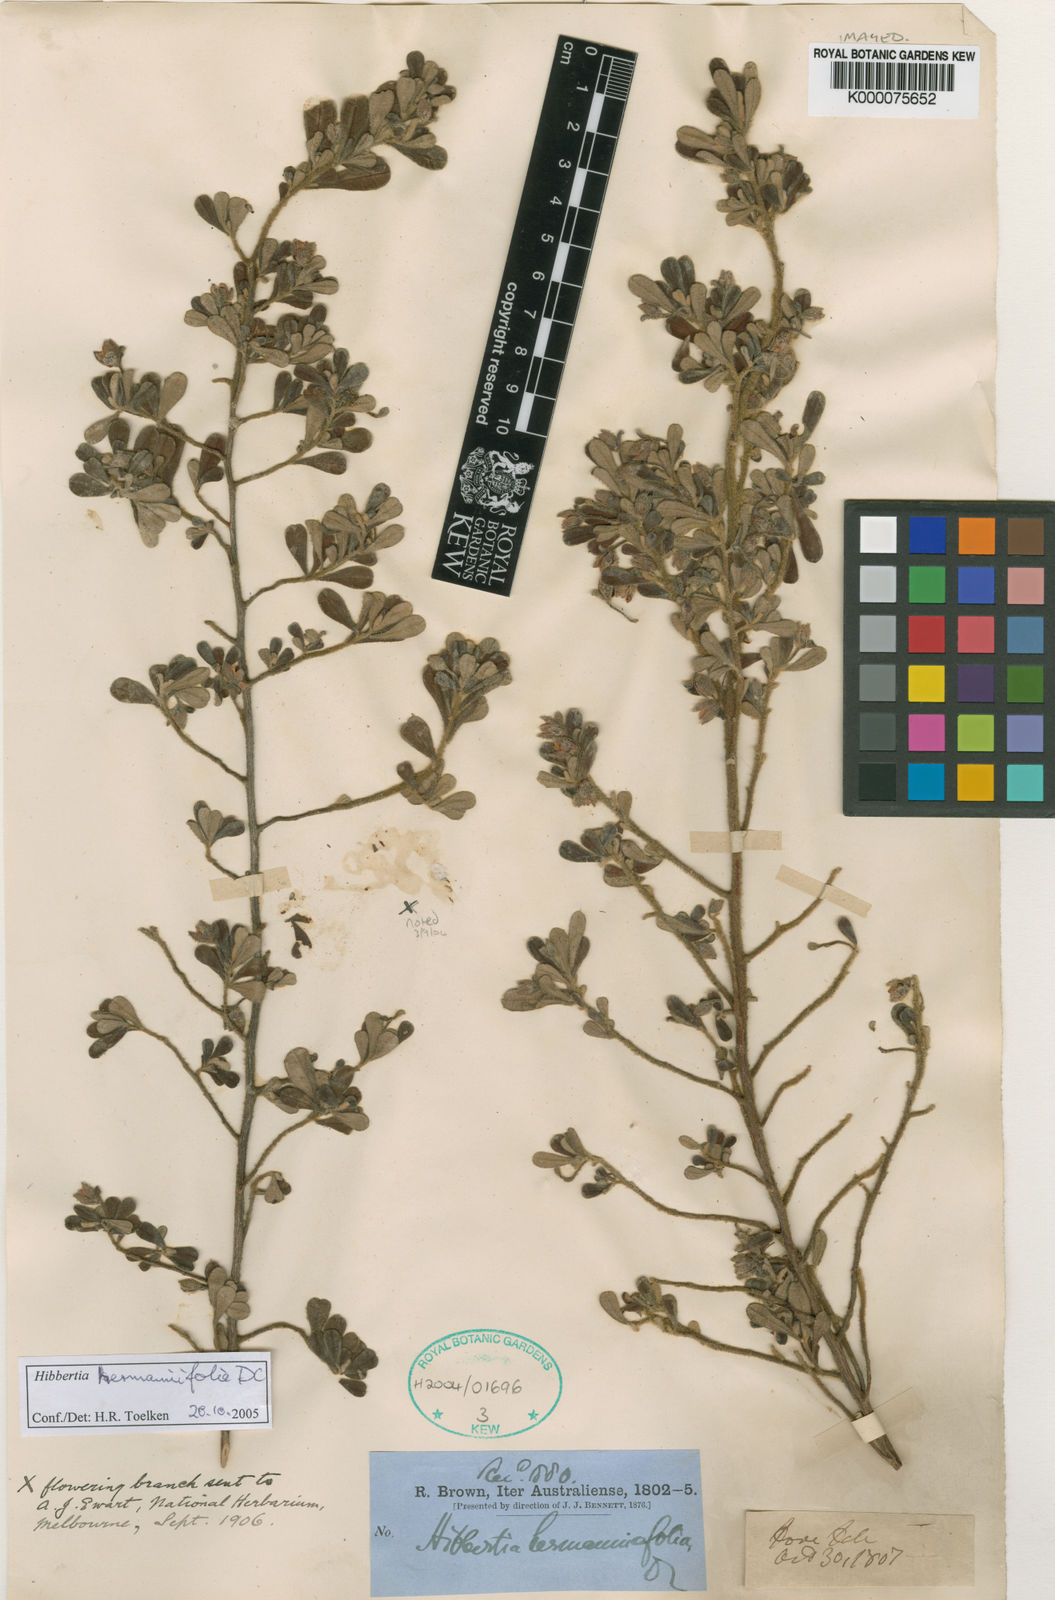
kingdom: Plantae
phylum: Tracheophyta
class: Magnoliopsida
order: Dilleniales
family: Dilleniaceae
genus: Hibbertia
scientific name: Hibbertia
